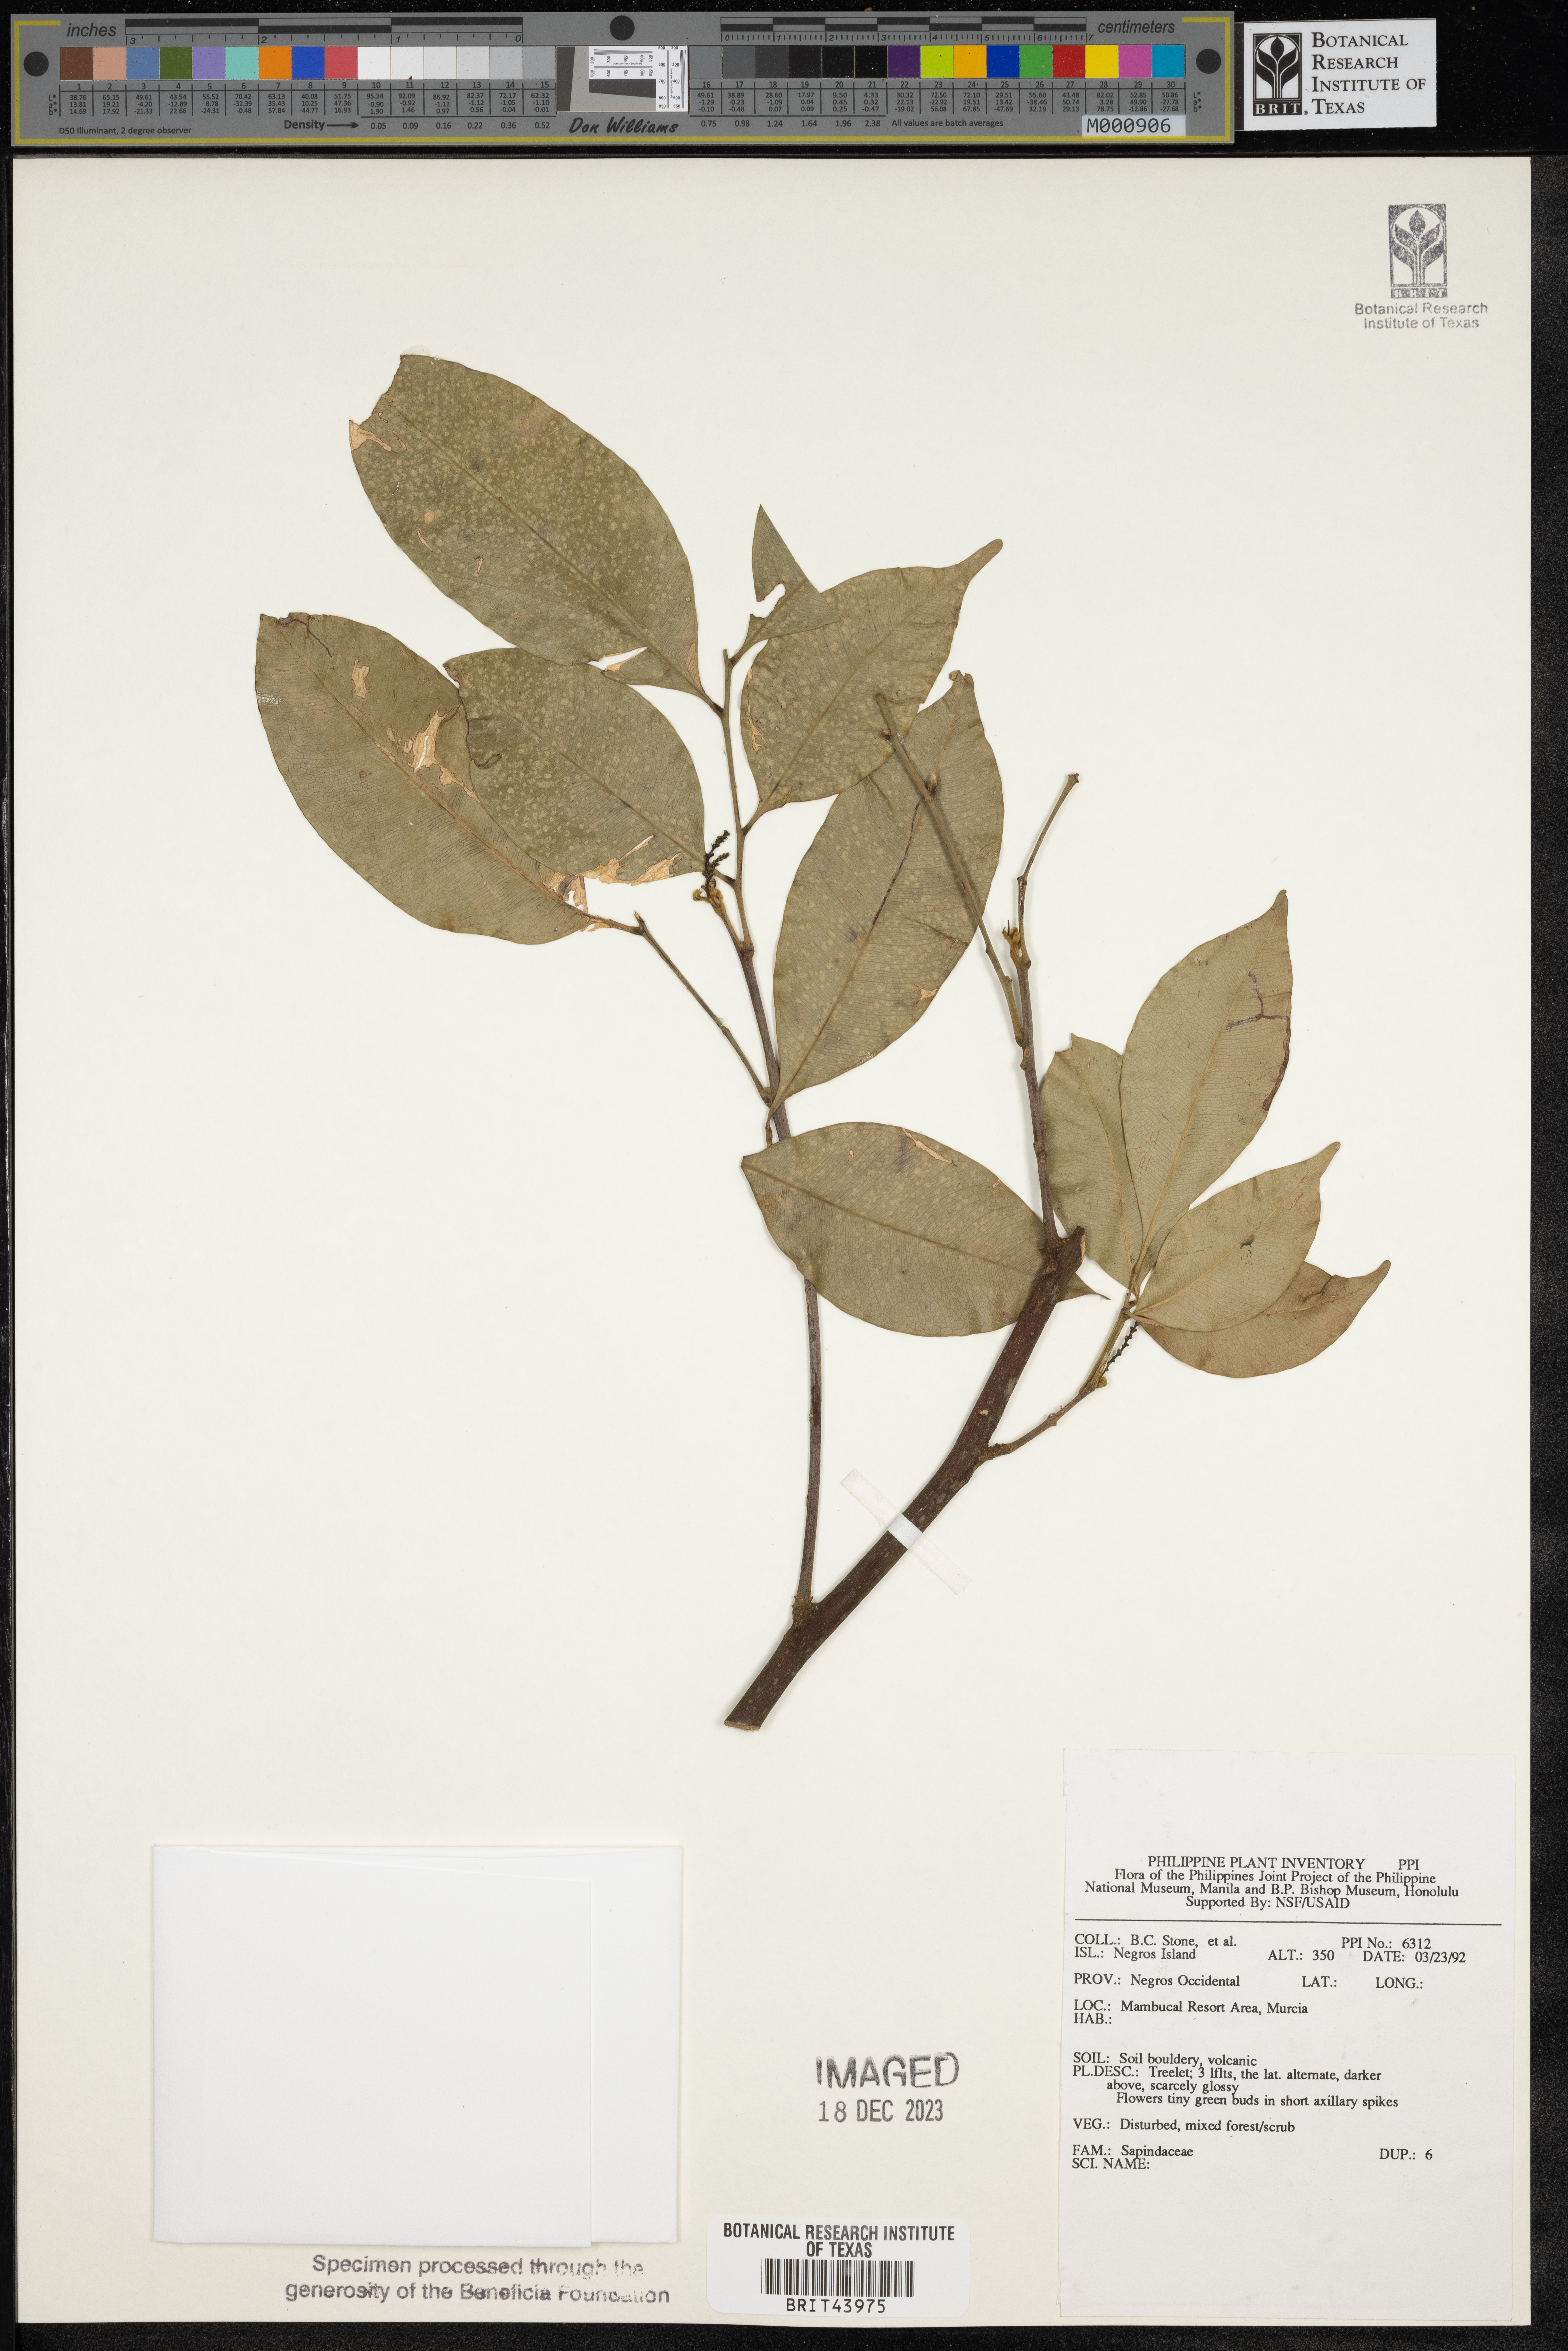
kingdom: Plantae
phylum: Tracheophyta
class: Magnoliopsida
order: Sapindales
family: Sapindaceae
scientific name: Sapindaceae
